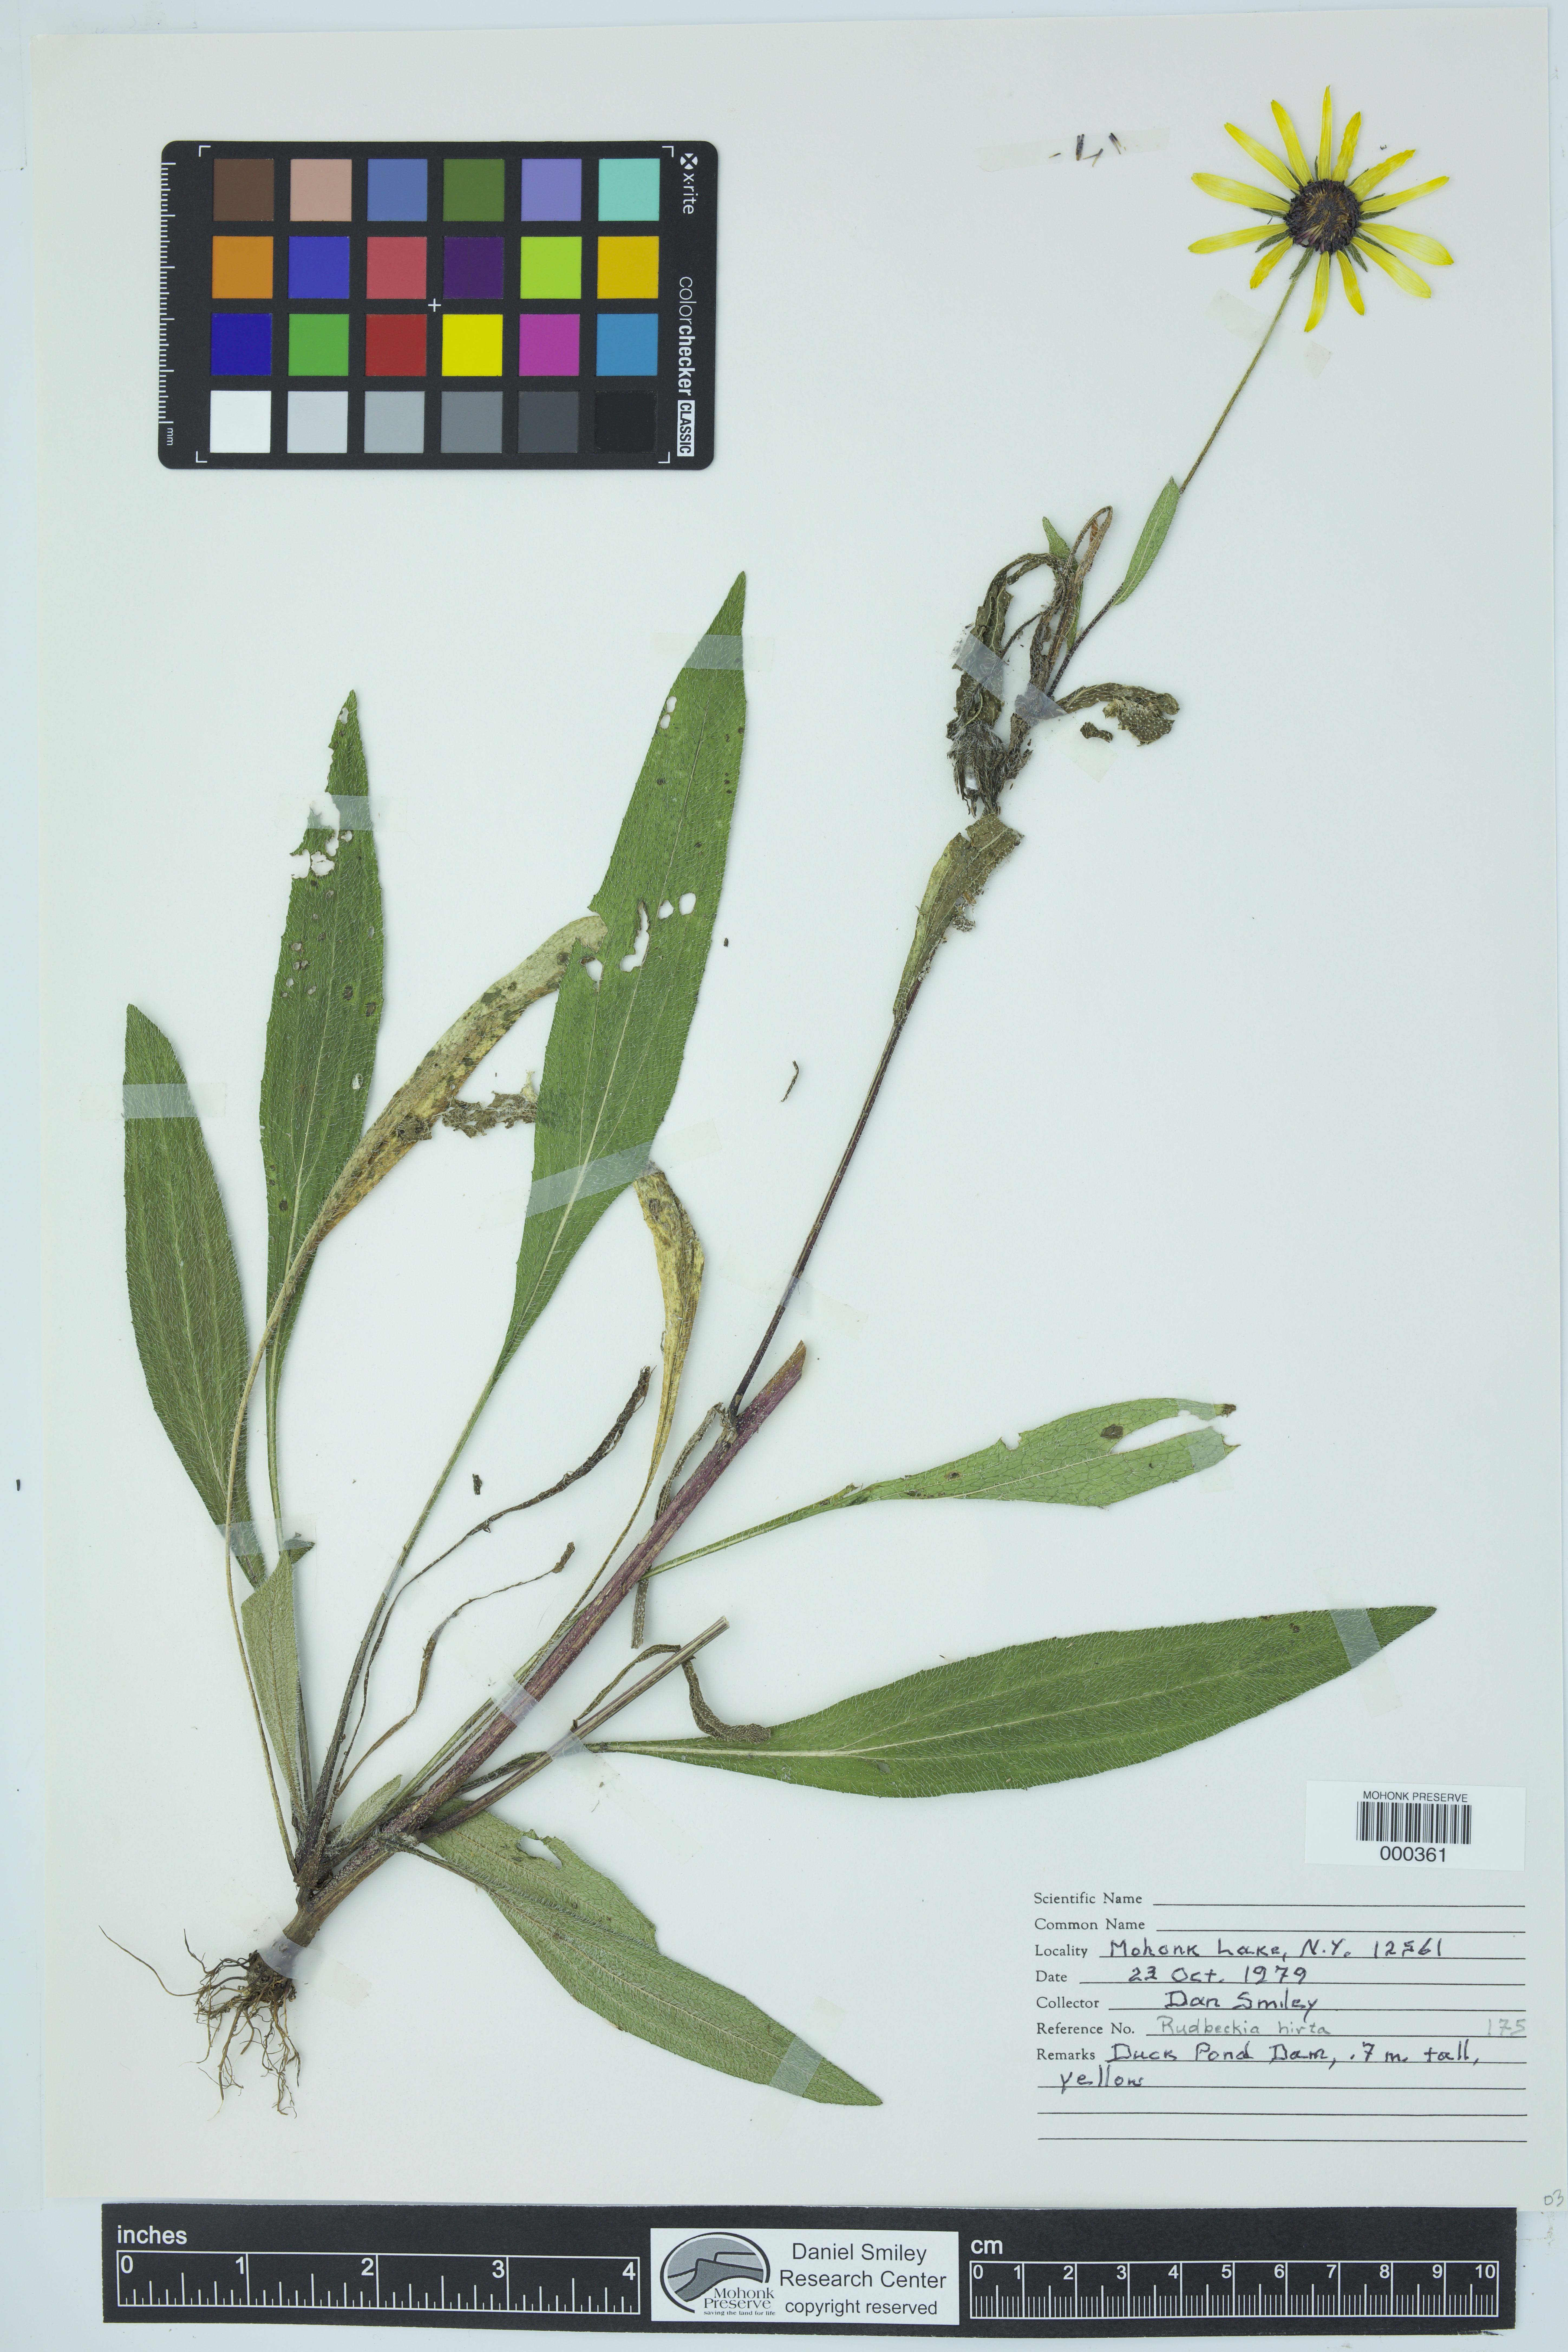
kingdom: Plantae
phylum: Tracheophyta
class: Magnoliopsida
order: Asterales
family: Asteraceae
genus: Rudbeckia
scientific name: Rudbeckia hirta
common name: Black-eyed-susan
